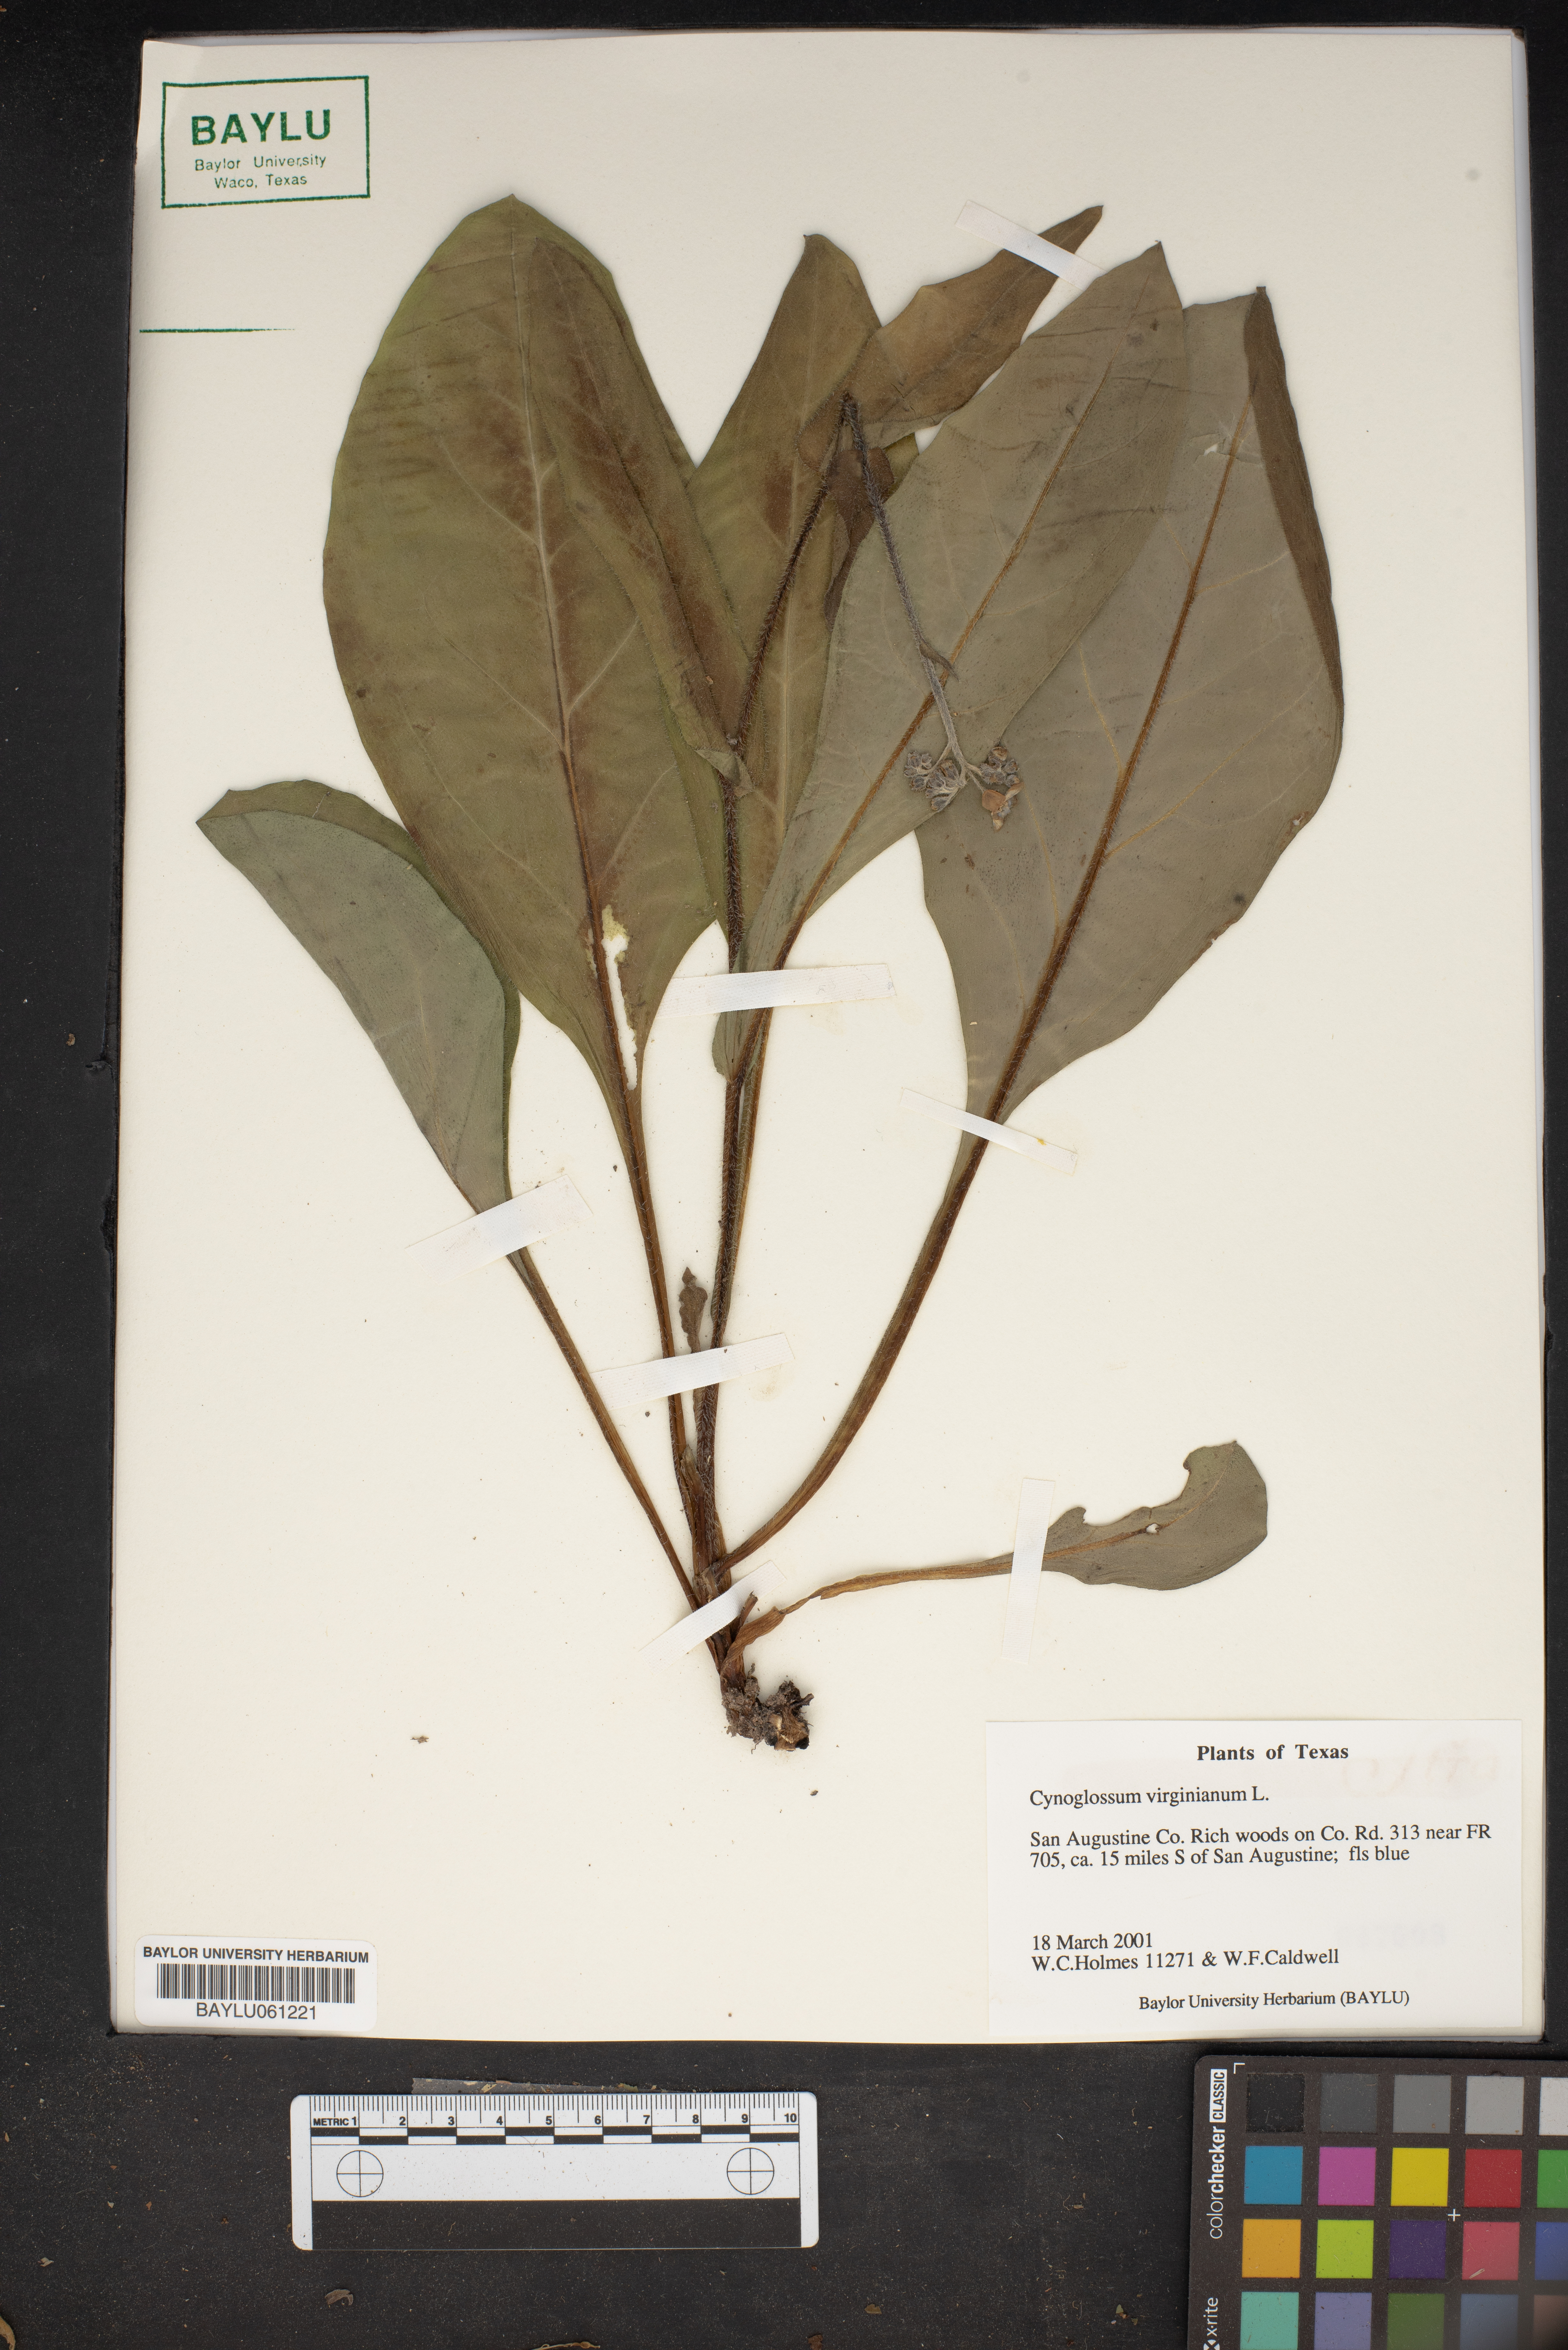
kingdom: Plantae
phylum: Tracheophyta
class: Magnoliopsida
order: Boraginales
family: Boraginaceae
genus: Andersonglossum
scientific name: Andersonglossum virginianum
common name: Wild comfrey
